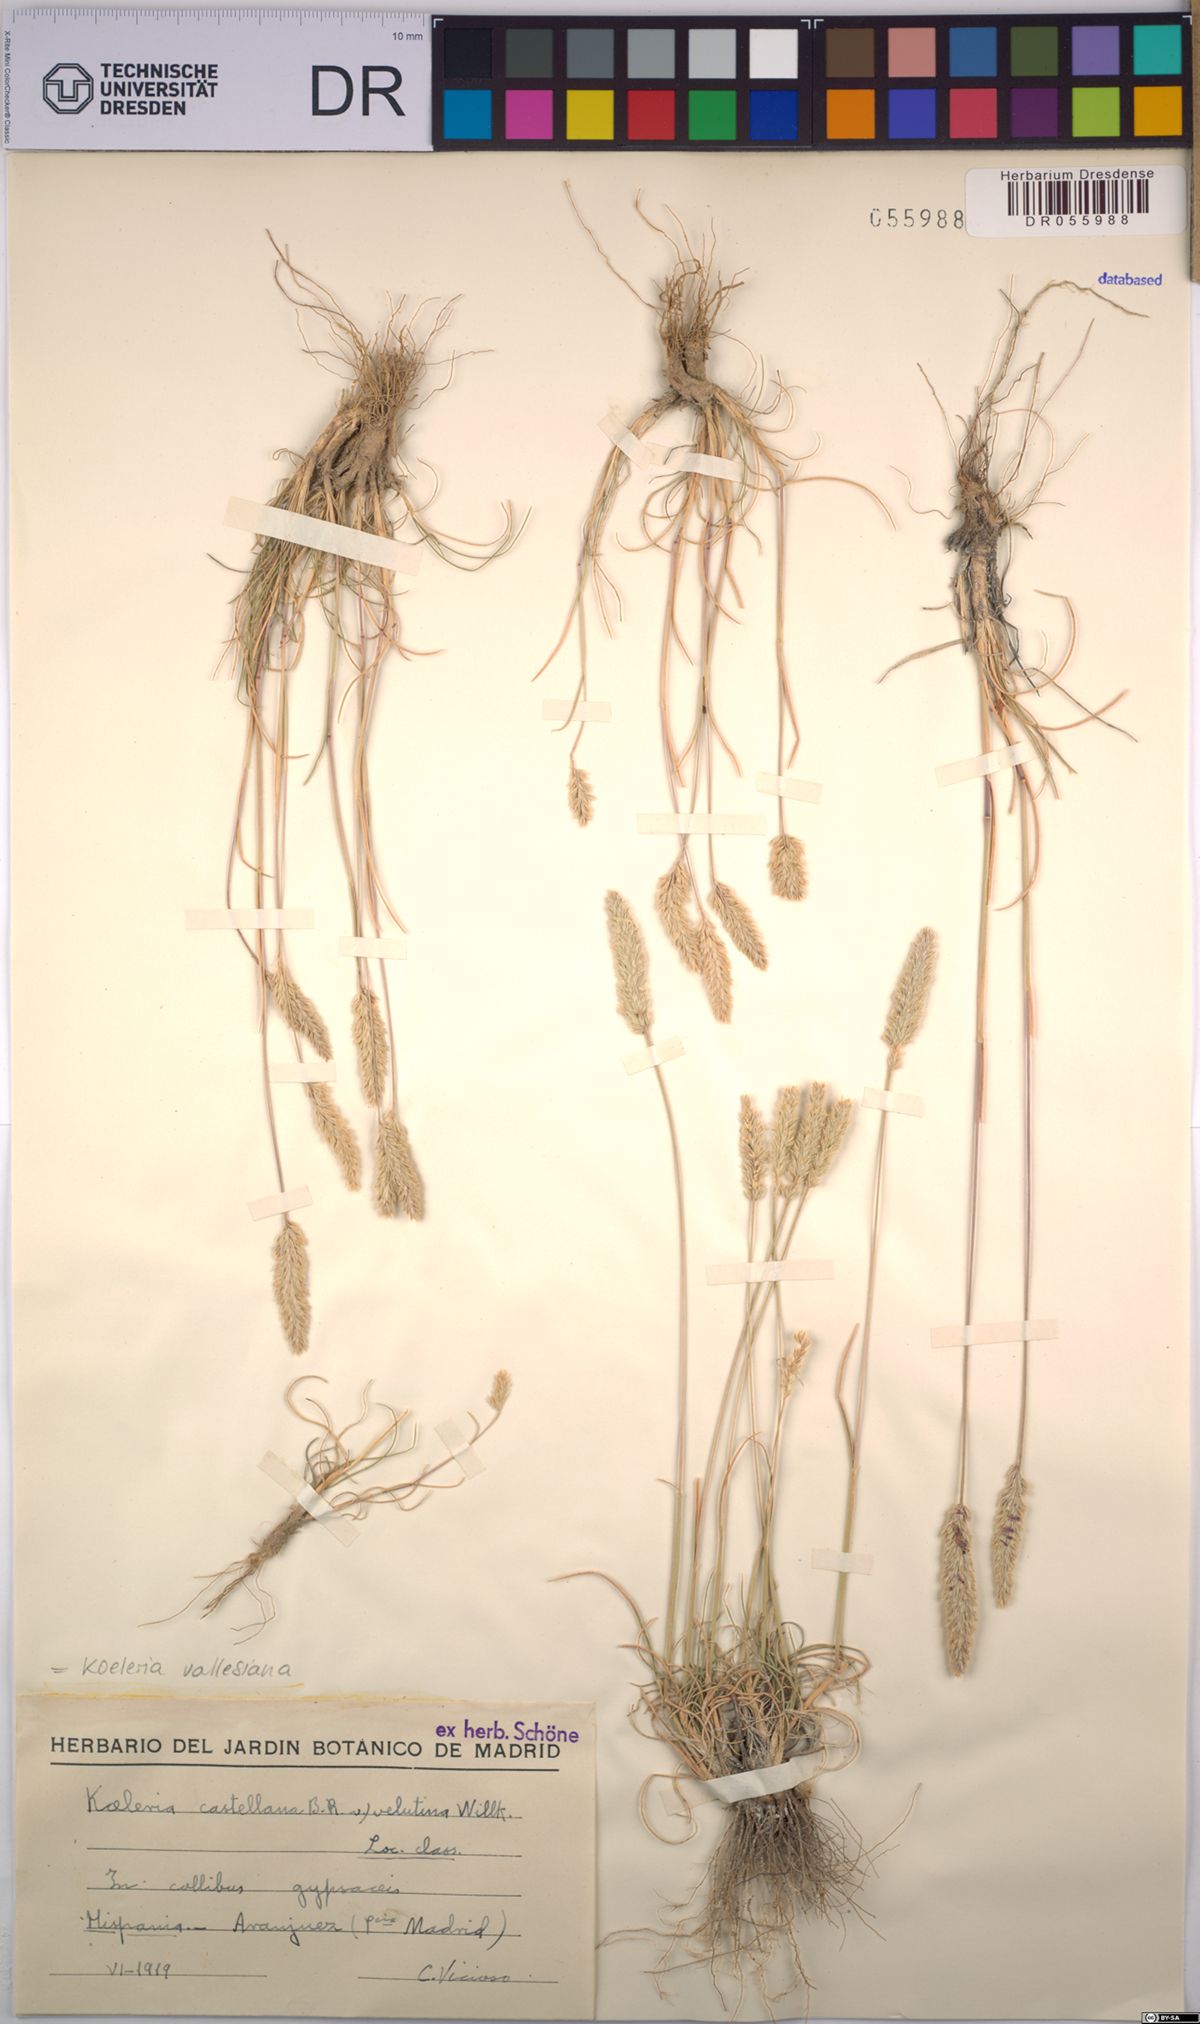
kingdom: Plantae
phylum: Tracheophyta
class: Liliopsida
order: Poales
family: Poaceae
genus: Koeleria
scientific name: Koeleria vallesiana
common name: Somerset hair-grass
